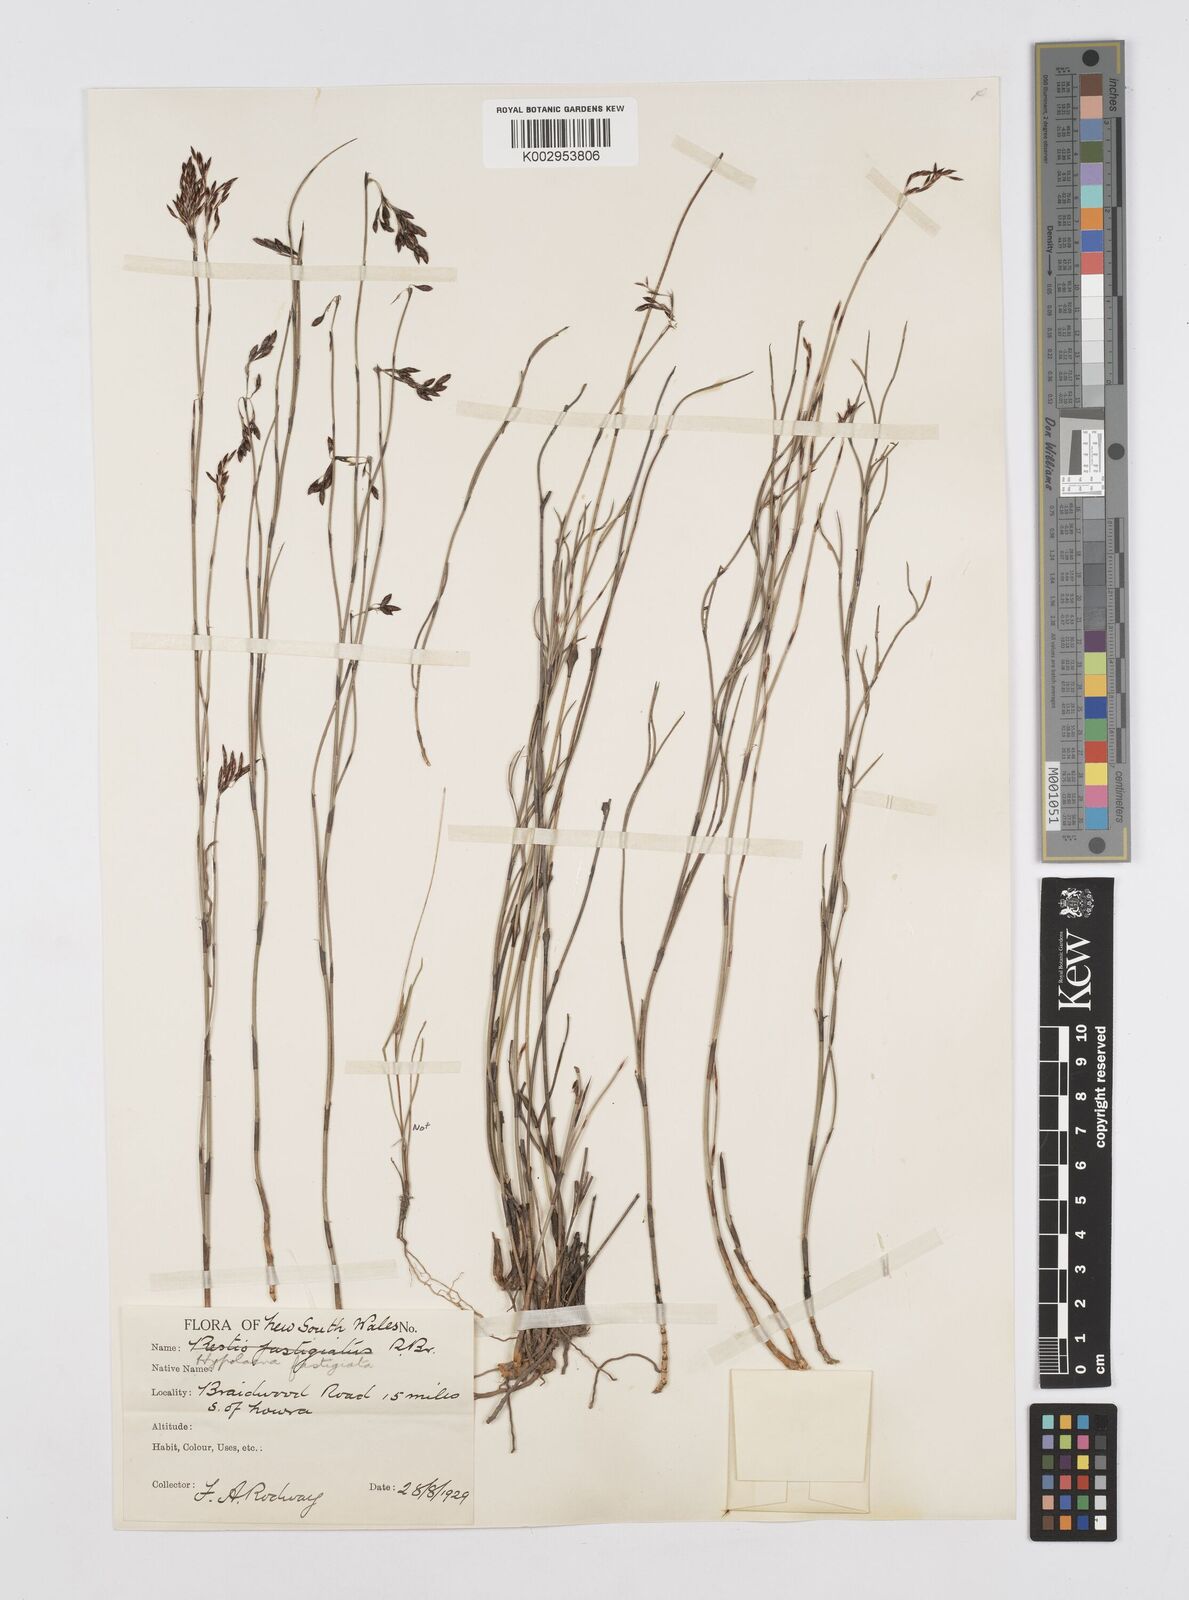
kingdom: Plantae
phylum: Tracheophyta
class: Liliopsida
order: Poales
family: Restionaceae
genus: Hypolaena
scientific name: Hypolaena fastigiata
